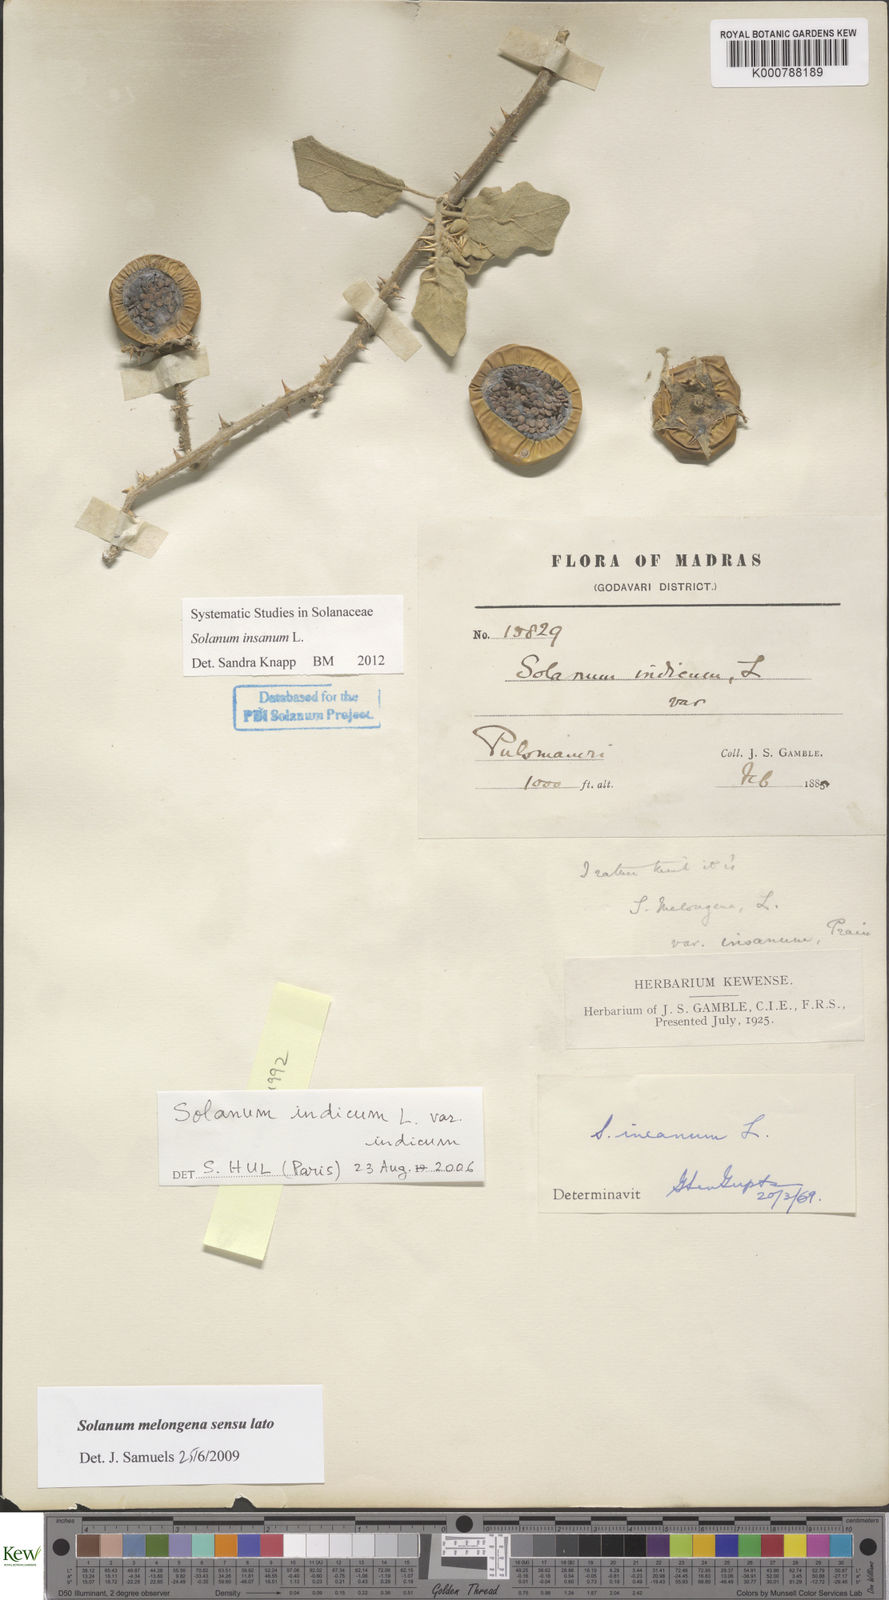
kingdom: Plantae
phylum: Tracheophyta
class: Magnoliopsida
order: Solanales
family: Solanaceae
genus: Solanum
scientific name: Solanum insanum
